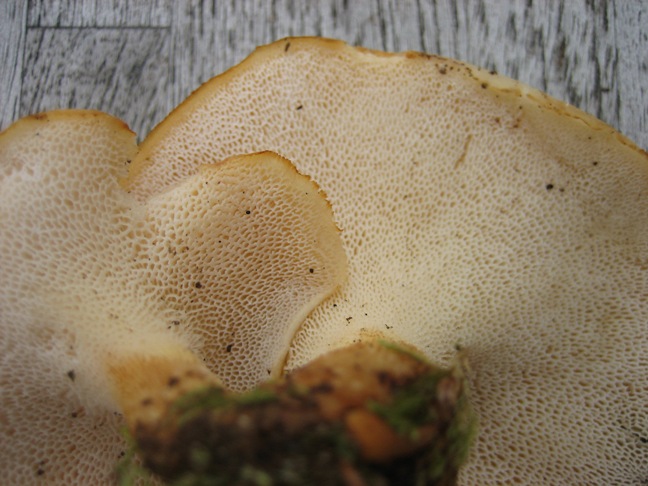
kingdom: Fungi
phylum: Basidiomycota
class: Agaricomycetes
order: Polyporales
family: Polyporaceae
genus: Polyporus
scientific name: Polyporus tuberaster
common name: knoldet stilkporesvamp
